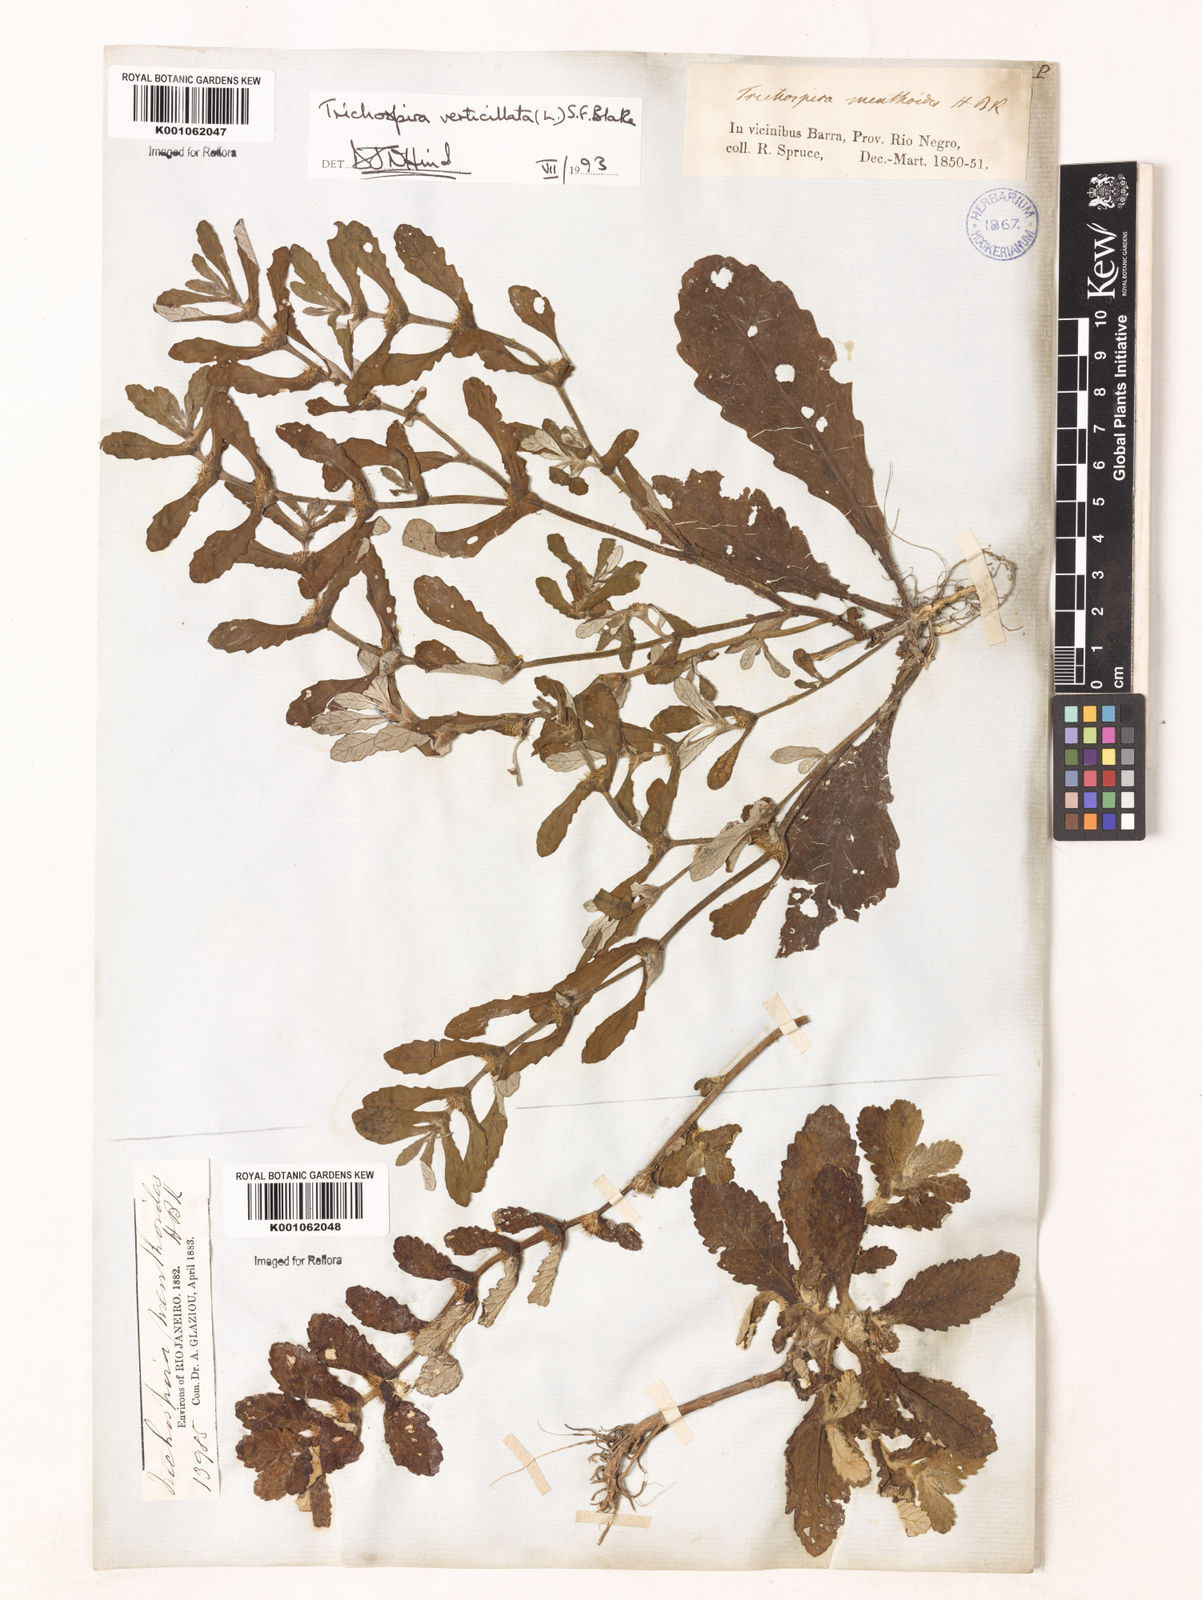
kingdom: Chromista
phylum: Ciliophora
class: Kinetofragminophora
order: Trichostomatida
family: Trichospiridae
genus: Trichospira
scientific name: Trichospira verticillata
